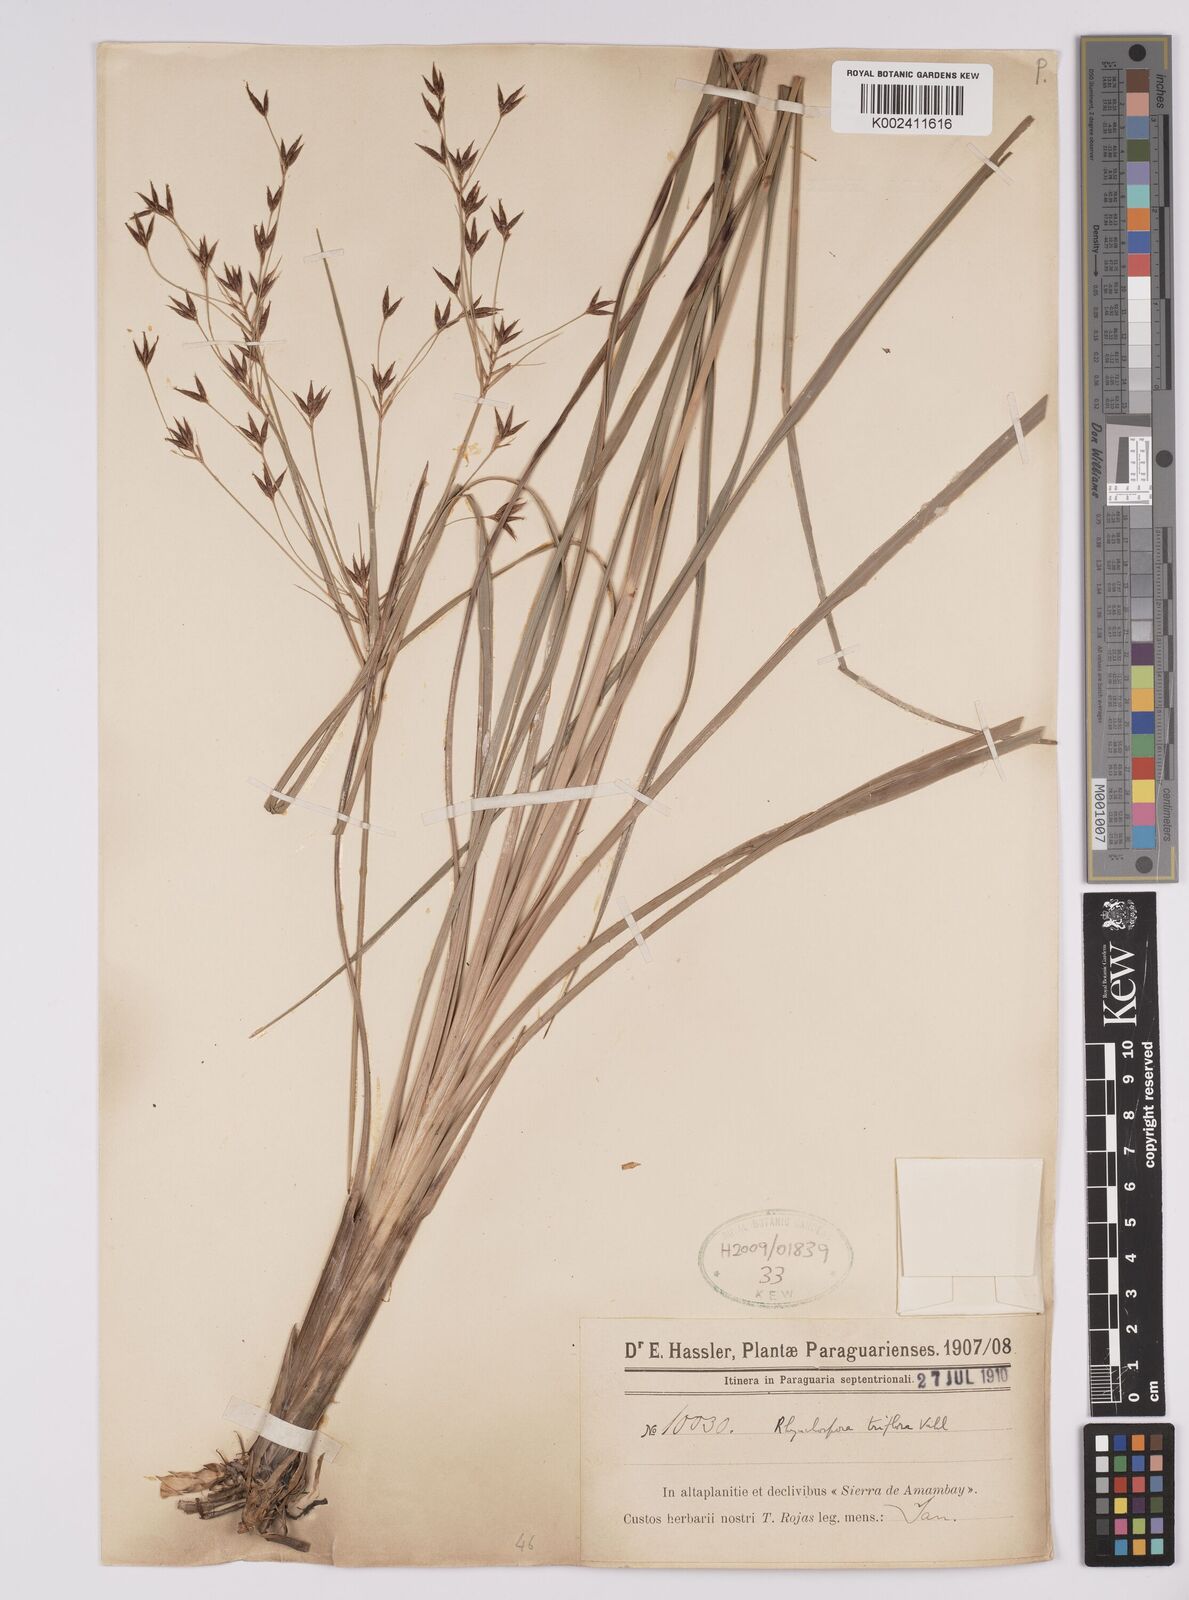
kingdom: Plantae
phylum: Tracheophyta
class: Liliopsida
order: Poales
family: Cyperaceae
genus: Rhynchospora
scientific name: Rhynchospora triflora
